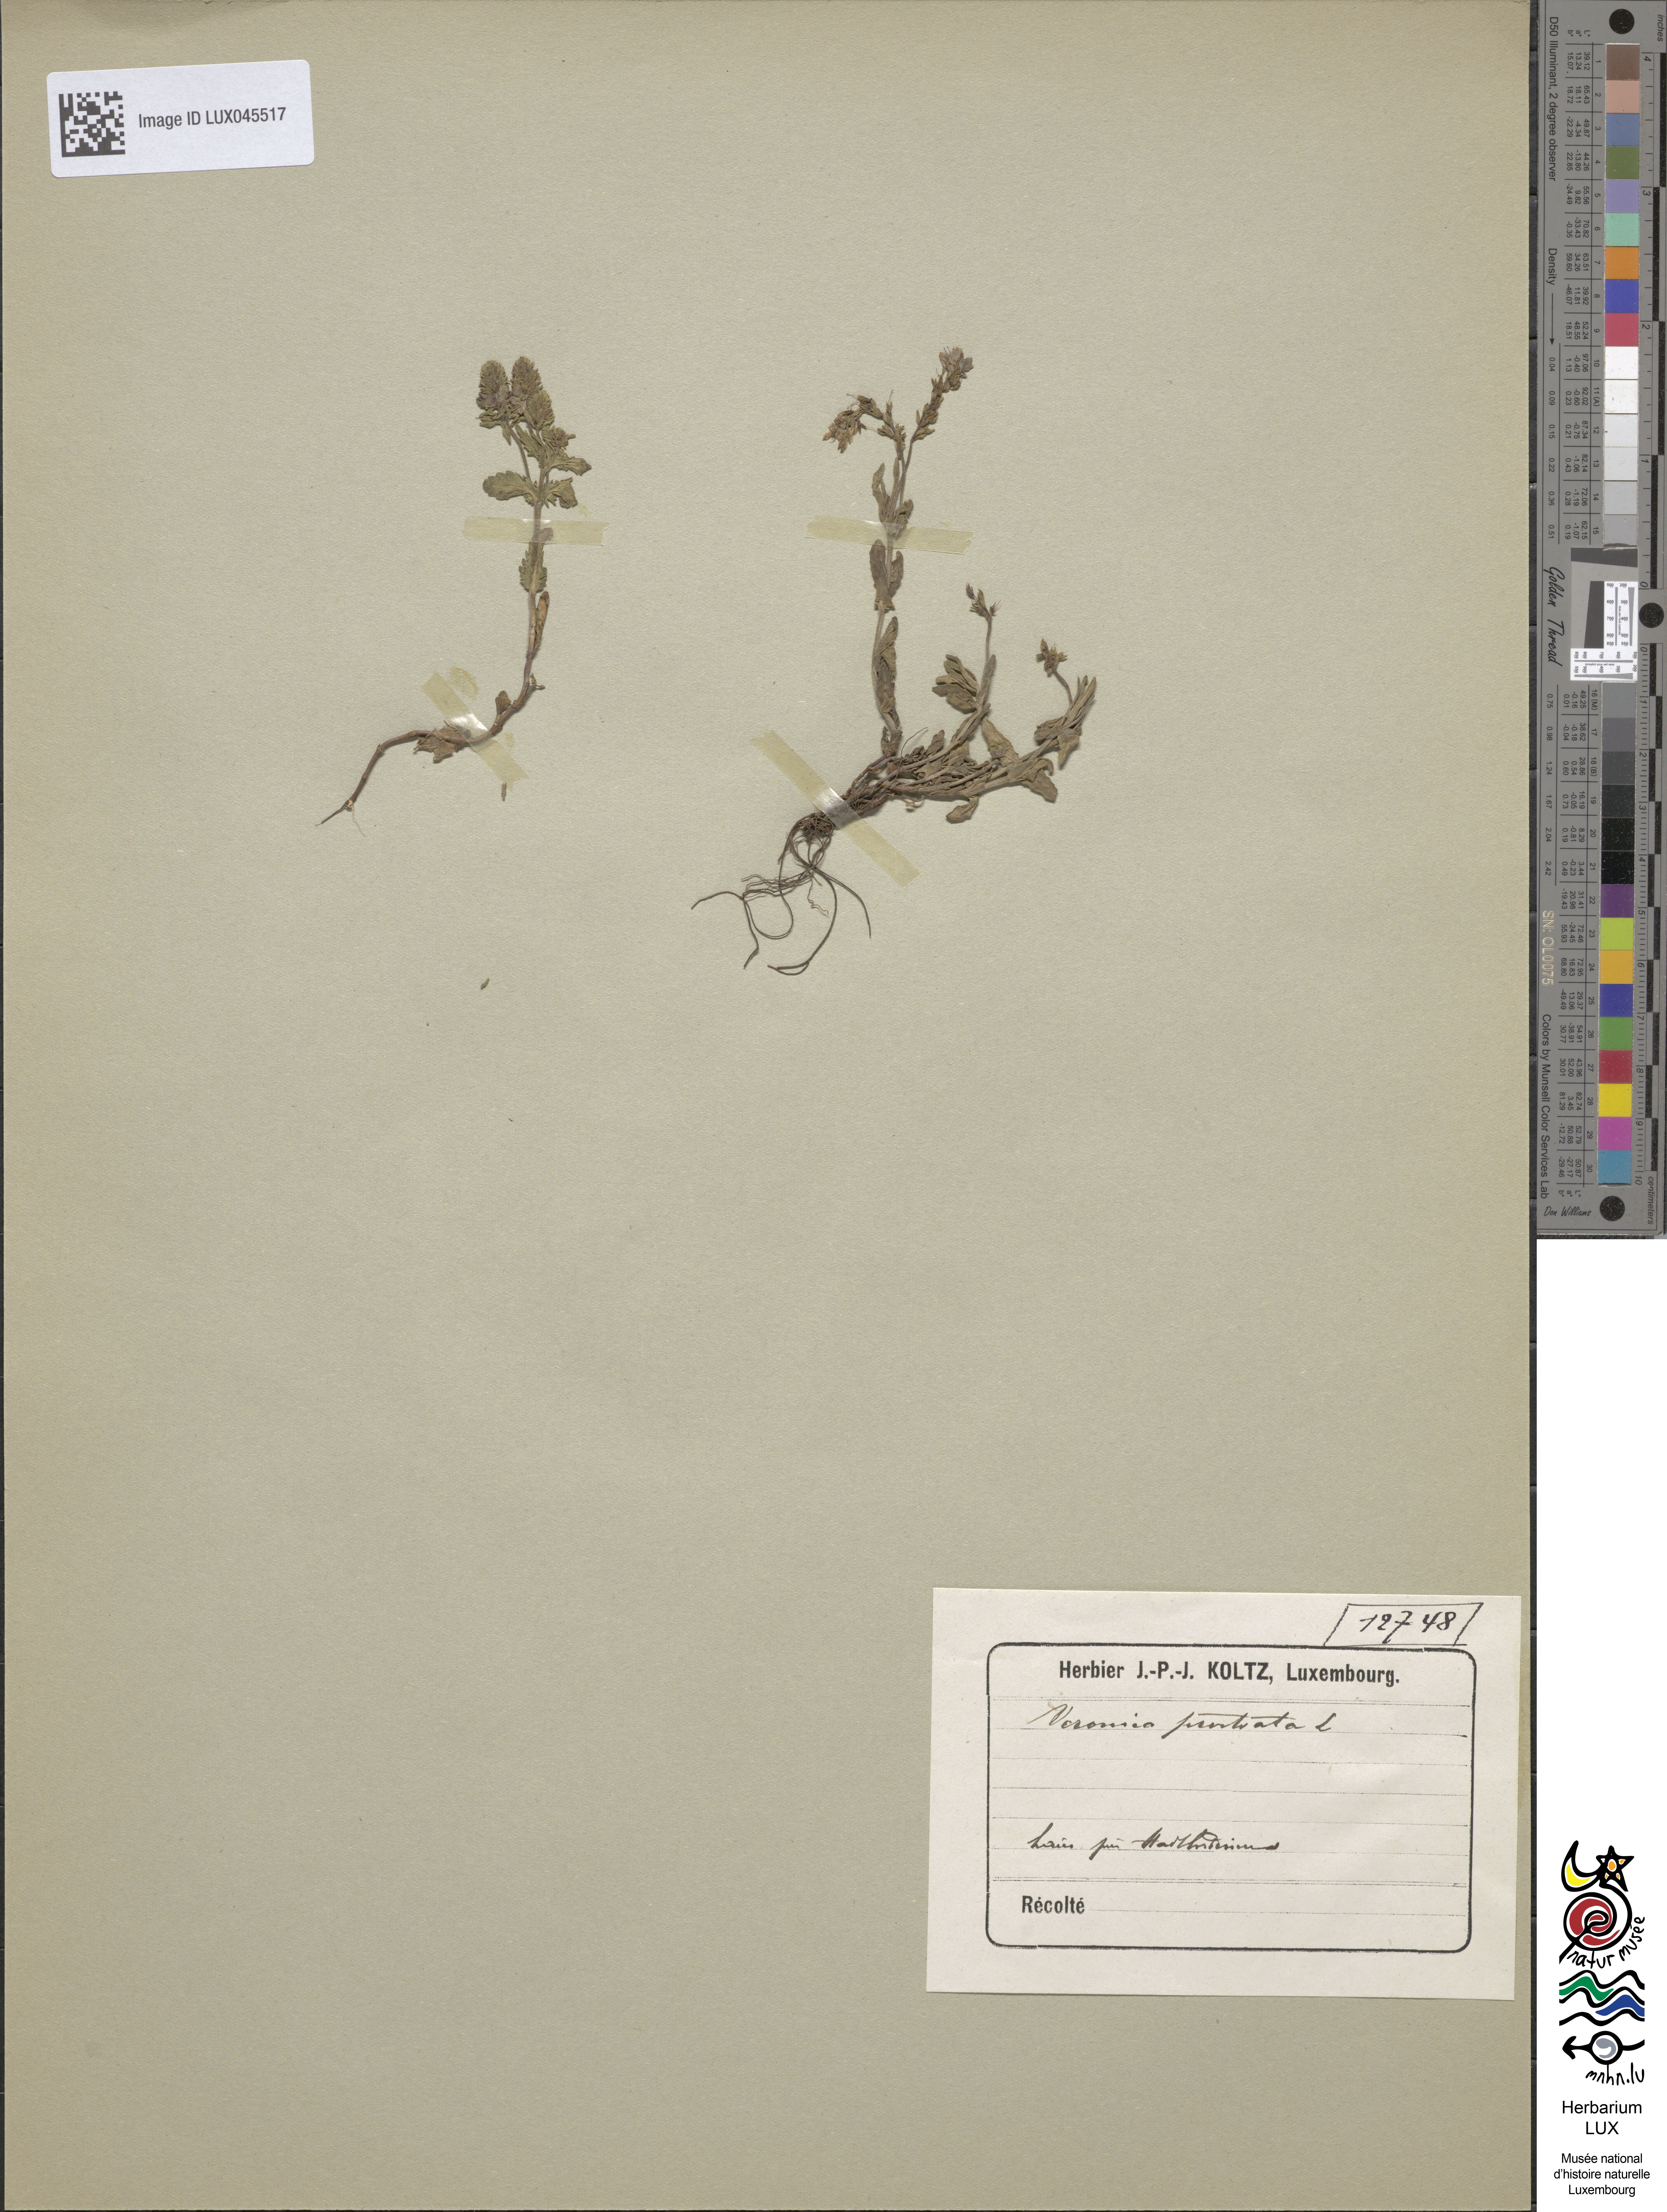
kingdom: Plantae
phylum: Tracheophyta
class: Magnoliopsida
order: Lamiales
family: Plantaginaceae
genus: Veronica
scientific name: Veronica prostrata
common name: Prostrate speedwell
